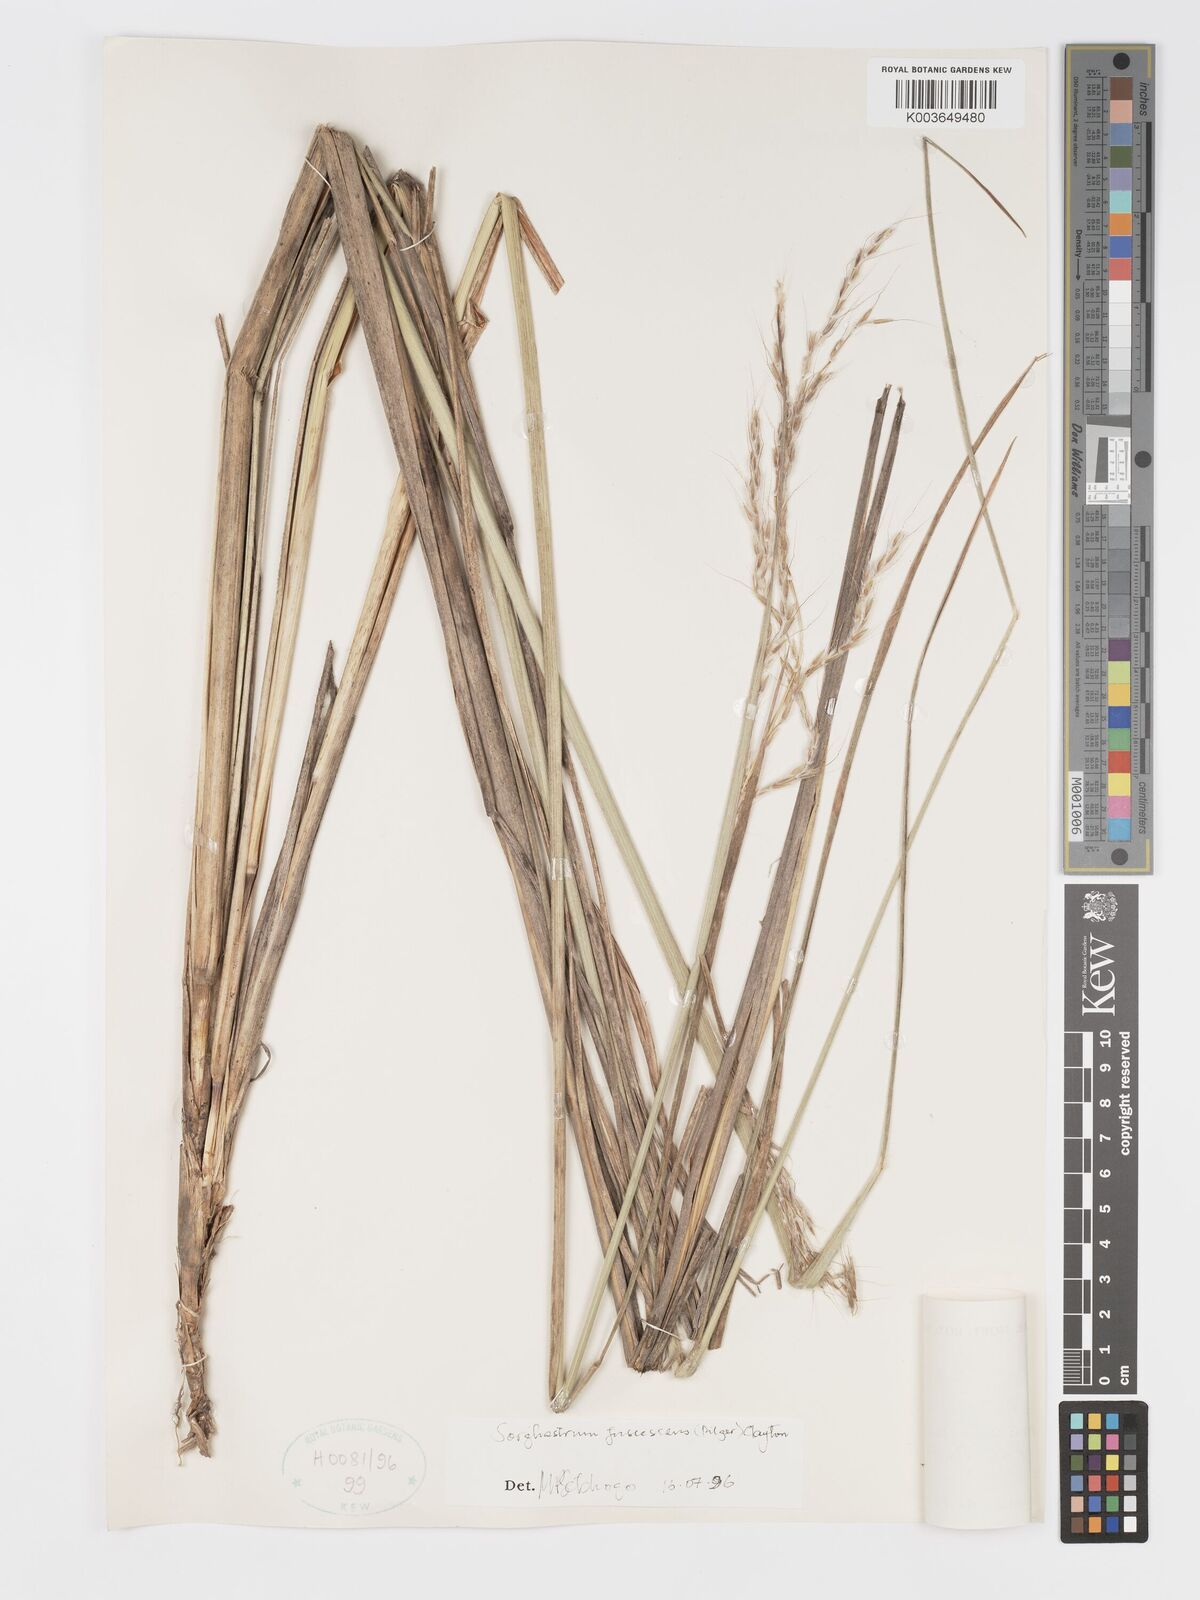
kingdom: Plantae
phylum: Tracheophyta
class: Liliopsida
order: Poales
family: Poaceae
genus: Sorghastrum
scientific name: Sorghastrum fuscescens
